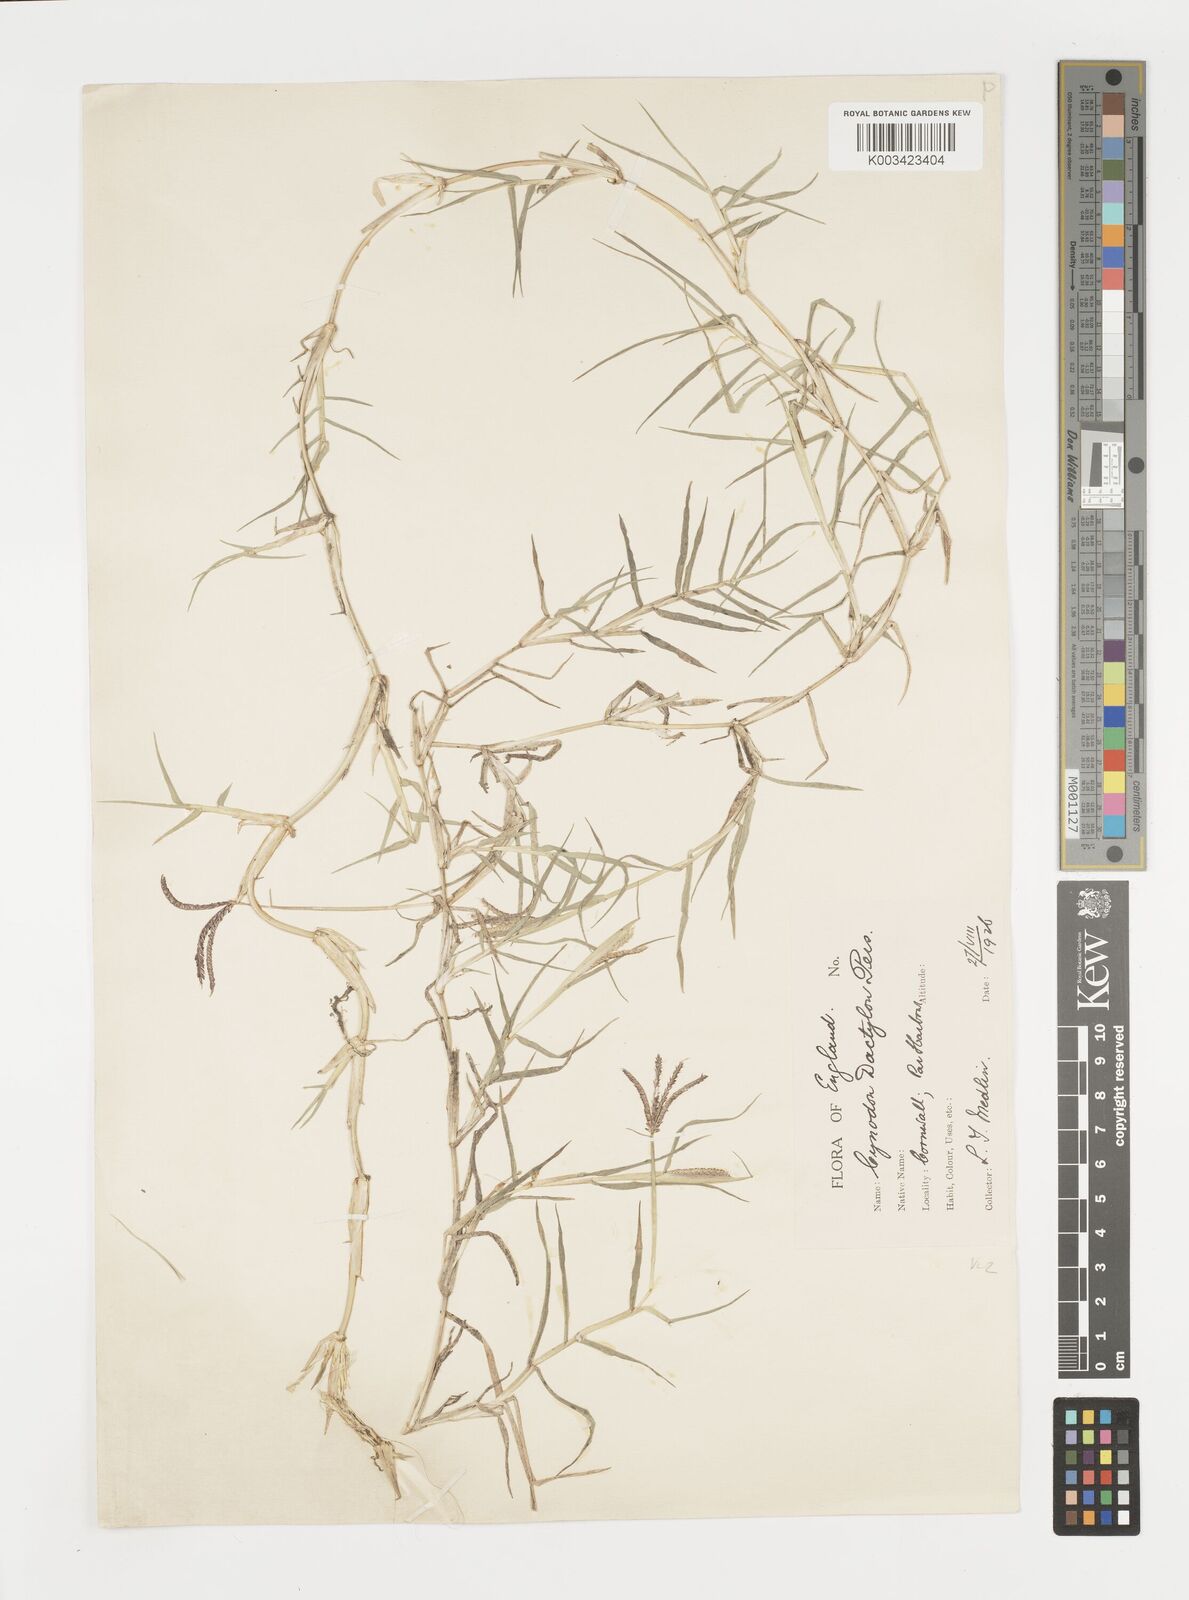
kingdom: Plantae
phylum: Tracheophyta
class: Liliopsida
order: Poales
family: Poaceae
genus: Cynodon
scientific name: Cynodon dactylon
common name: Bermuda grass
